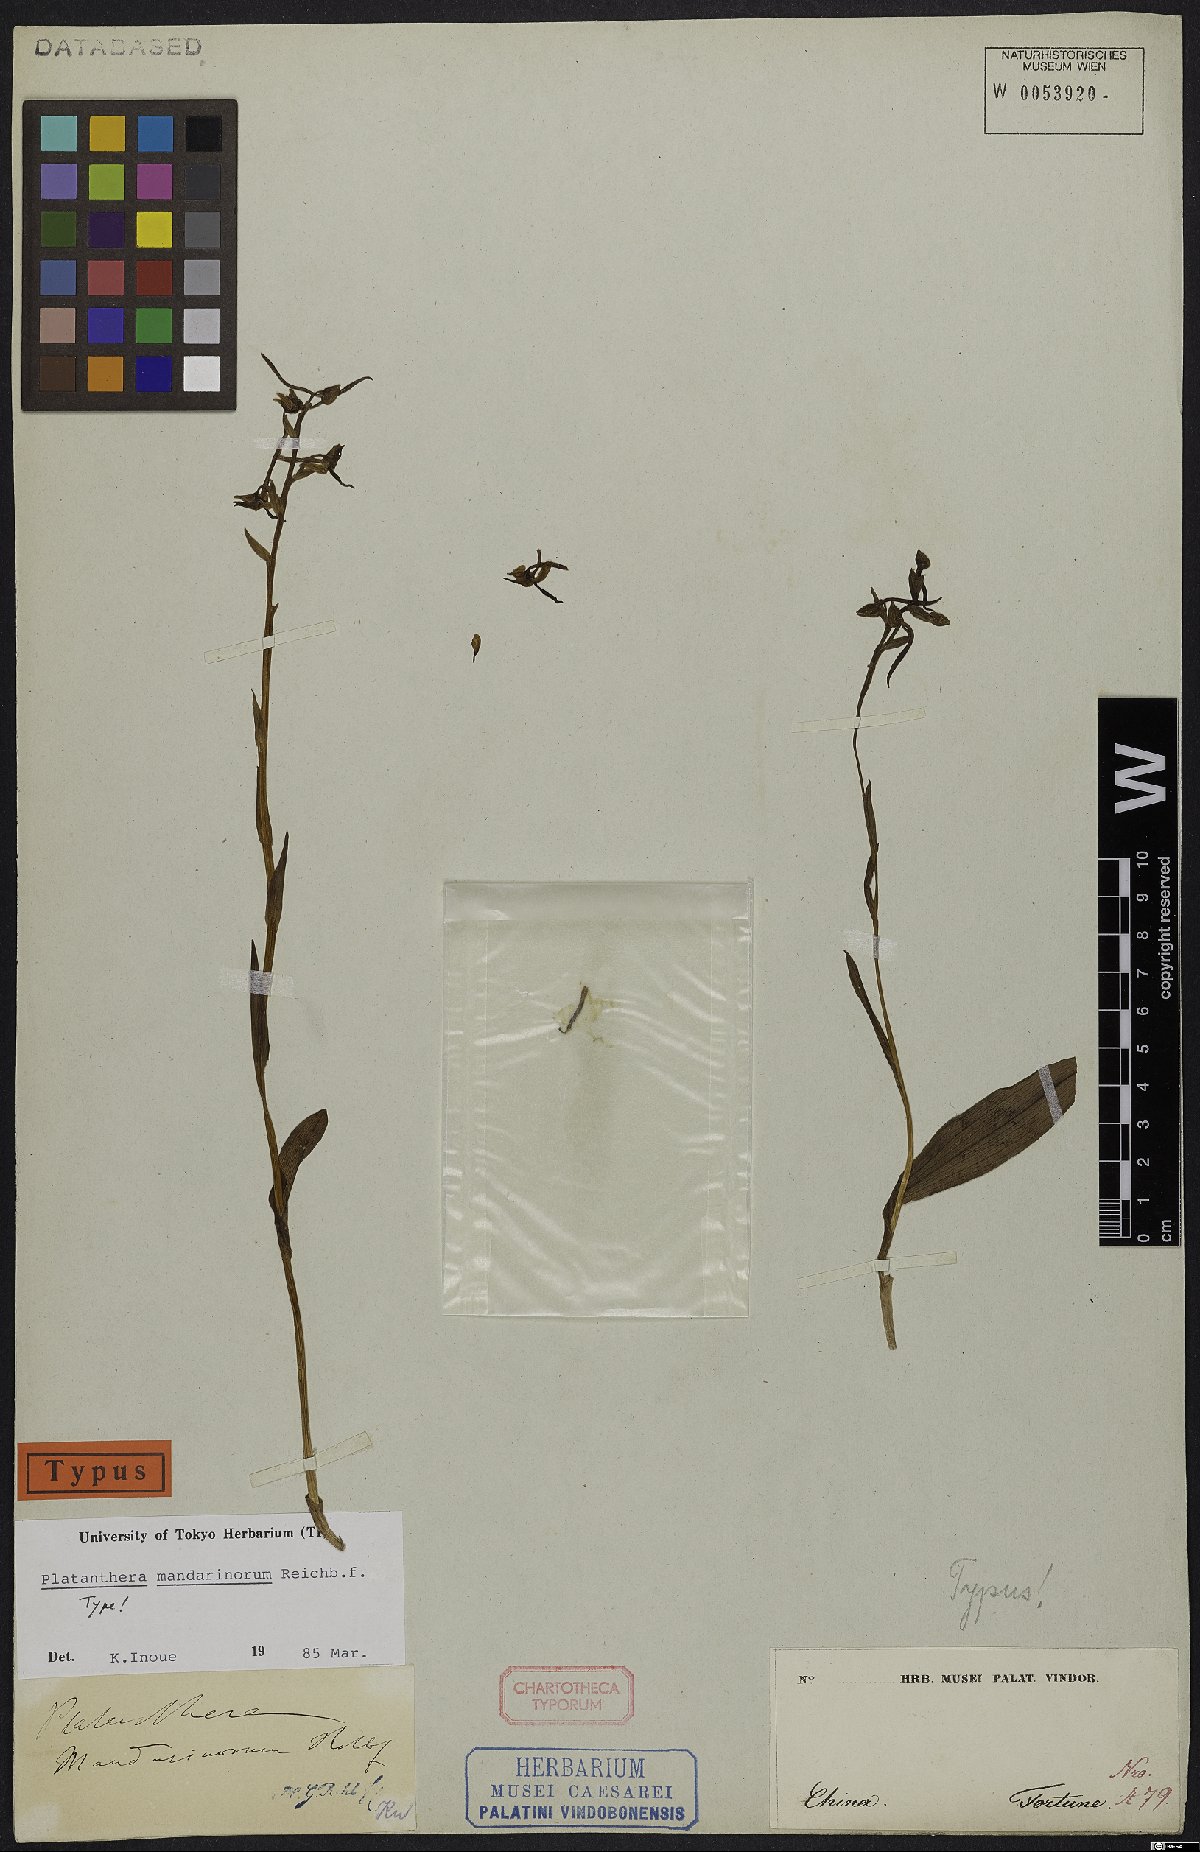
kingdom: Plantae
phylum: Tracheophyta
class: Liliopsida
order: Asparagales
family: Orchidaceae
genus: Platanthera
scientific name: Platanthera mandarinorum
